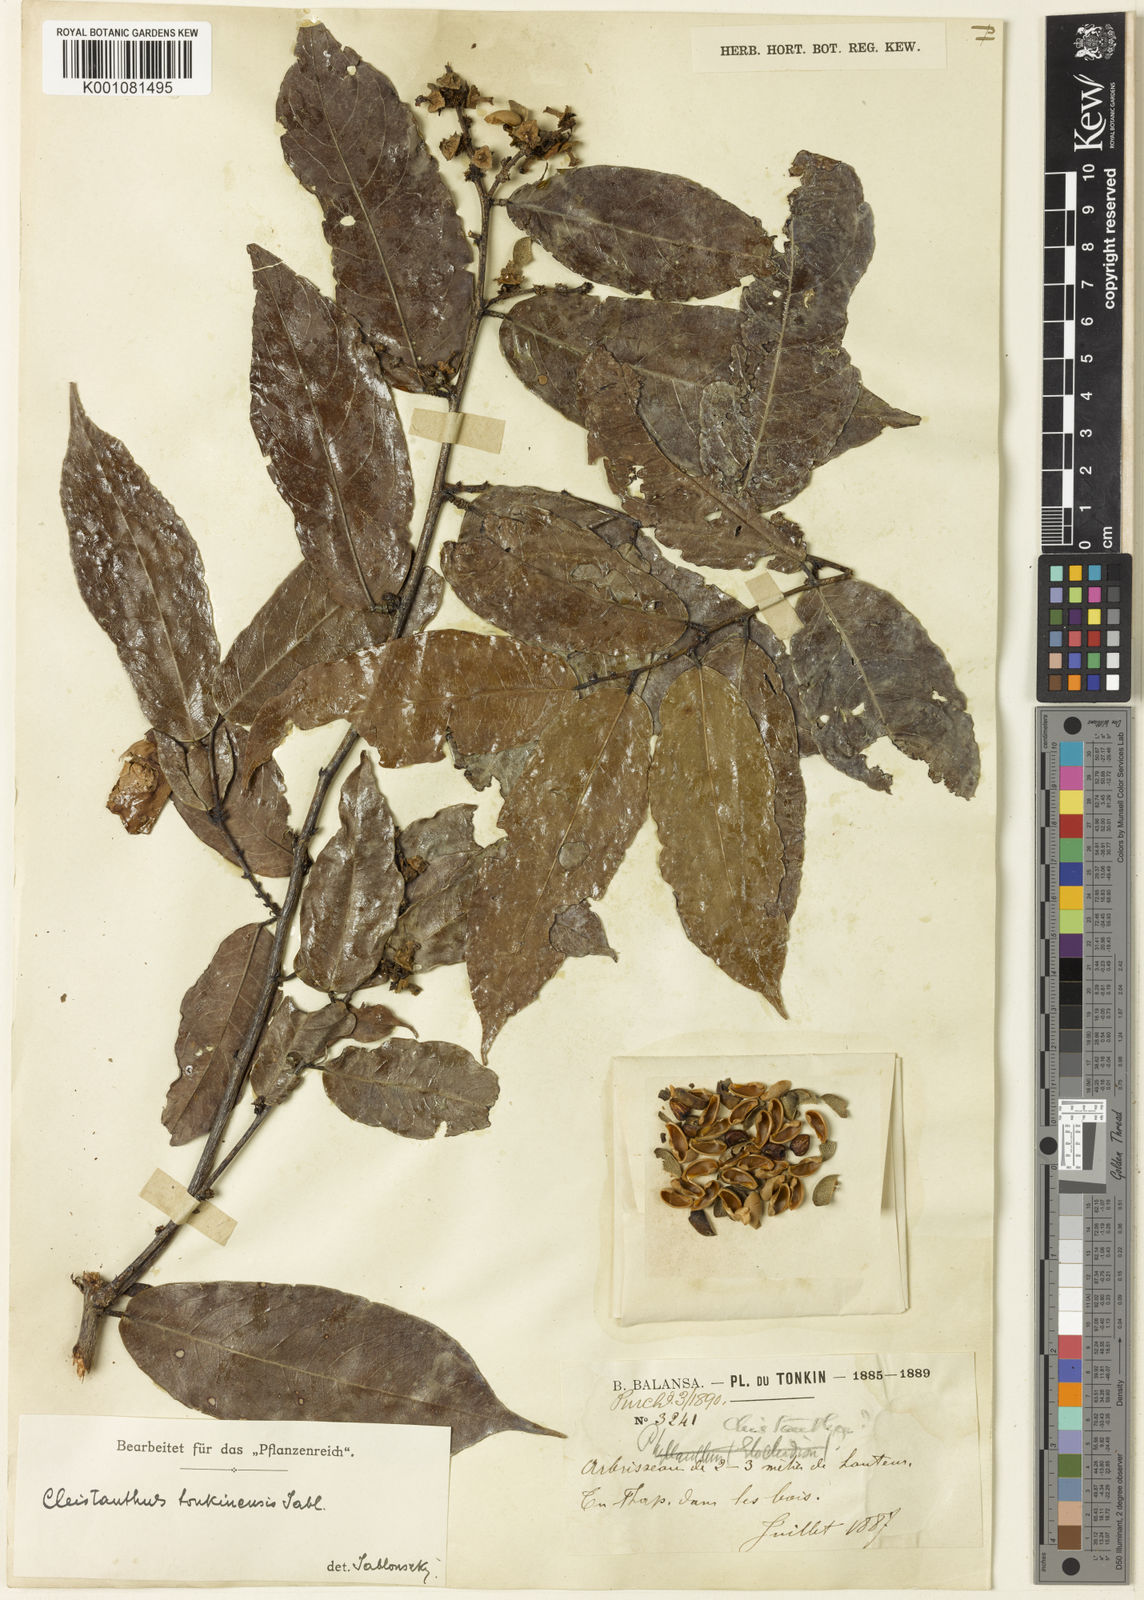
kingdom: Plantae
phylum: Tracheophyta
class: Magnoliopsida
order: Malpighiales
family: Phyllanthaceae
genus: Cleistanthus
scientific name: Cleistanthus tonkinensis
